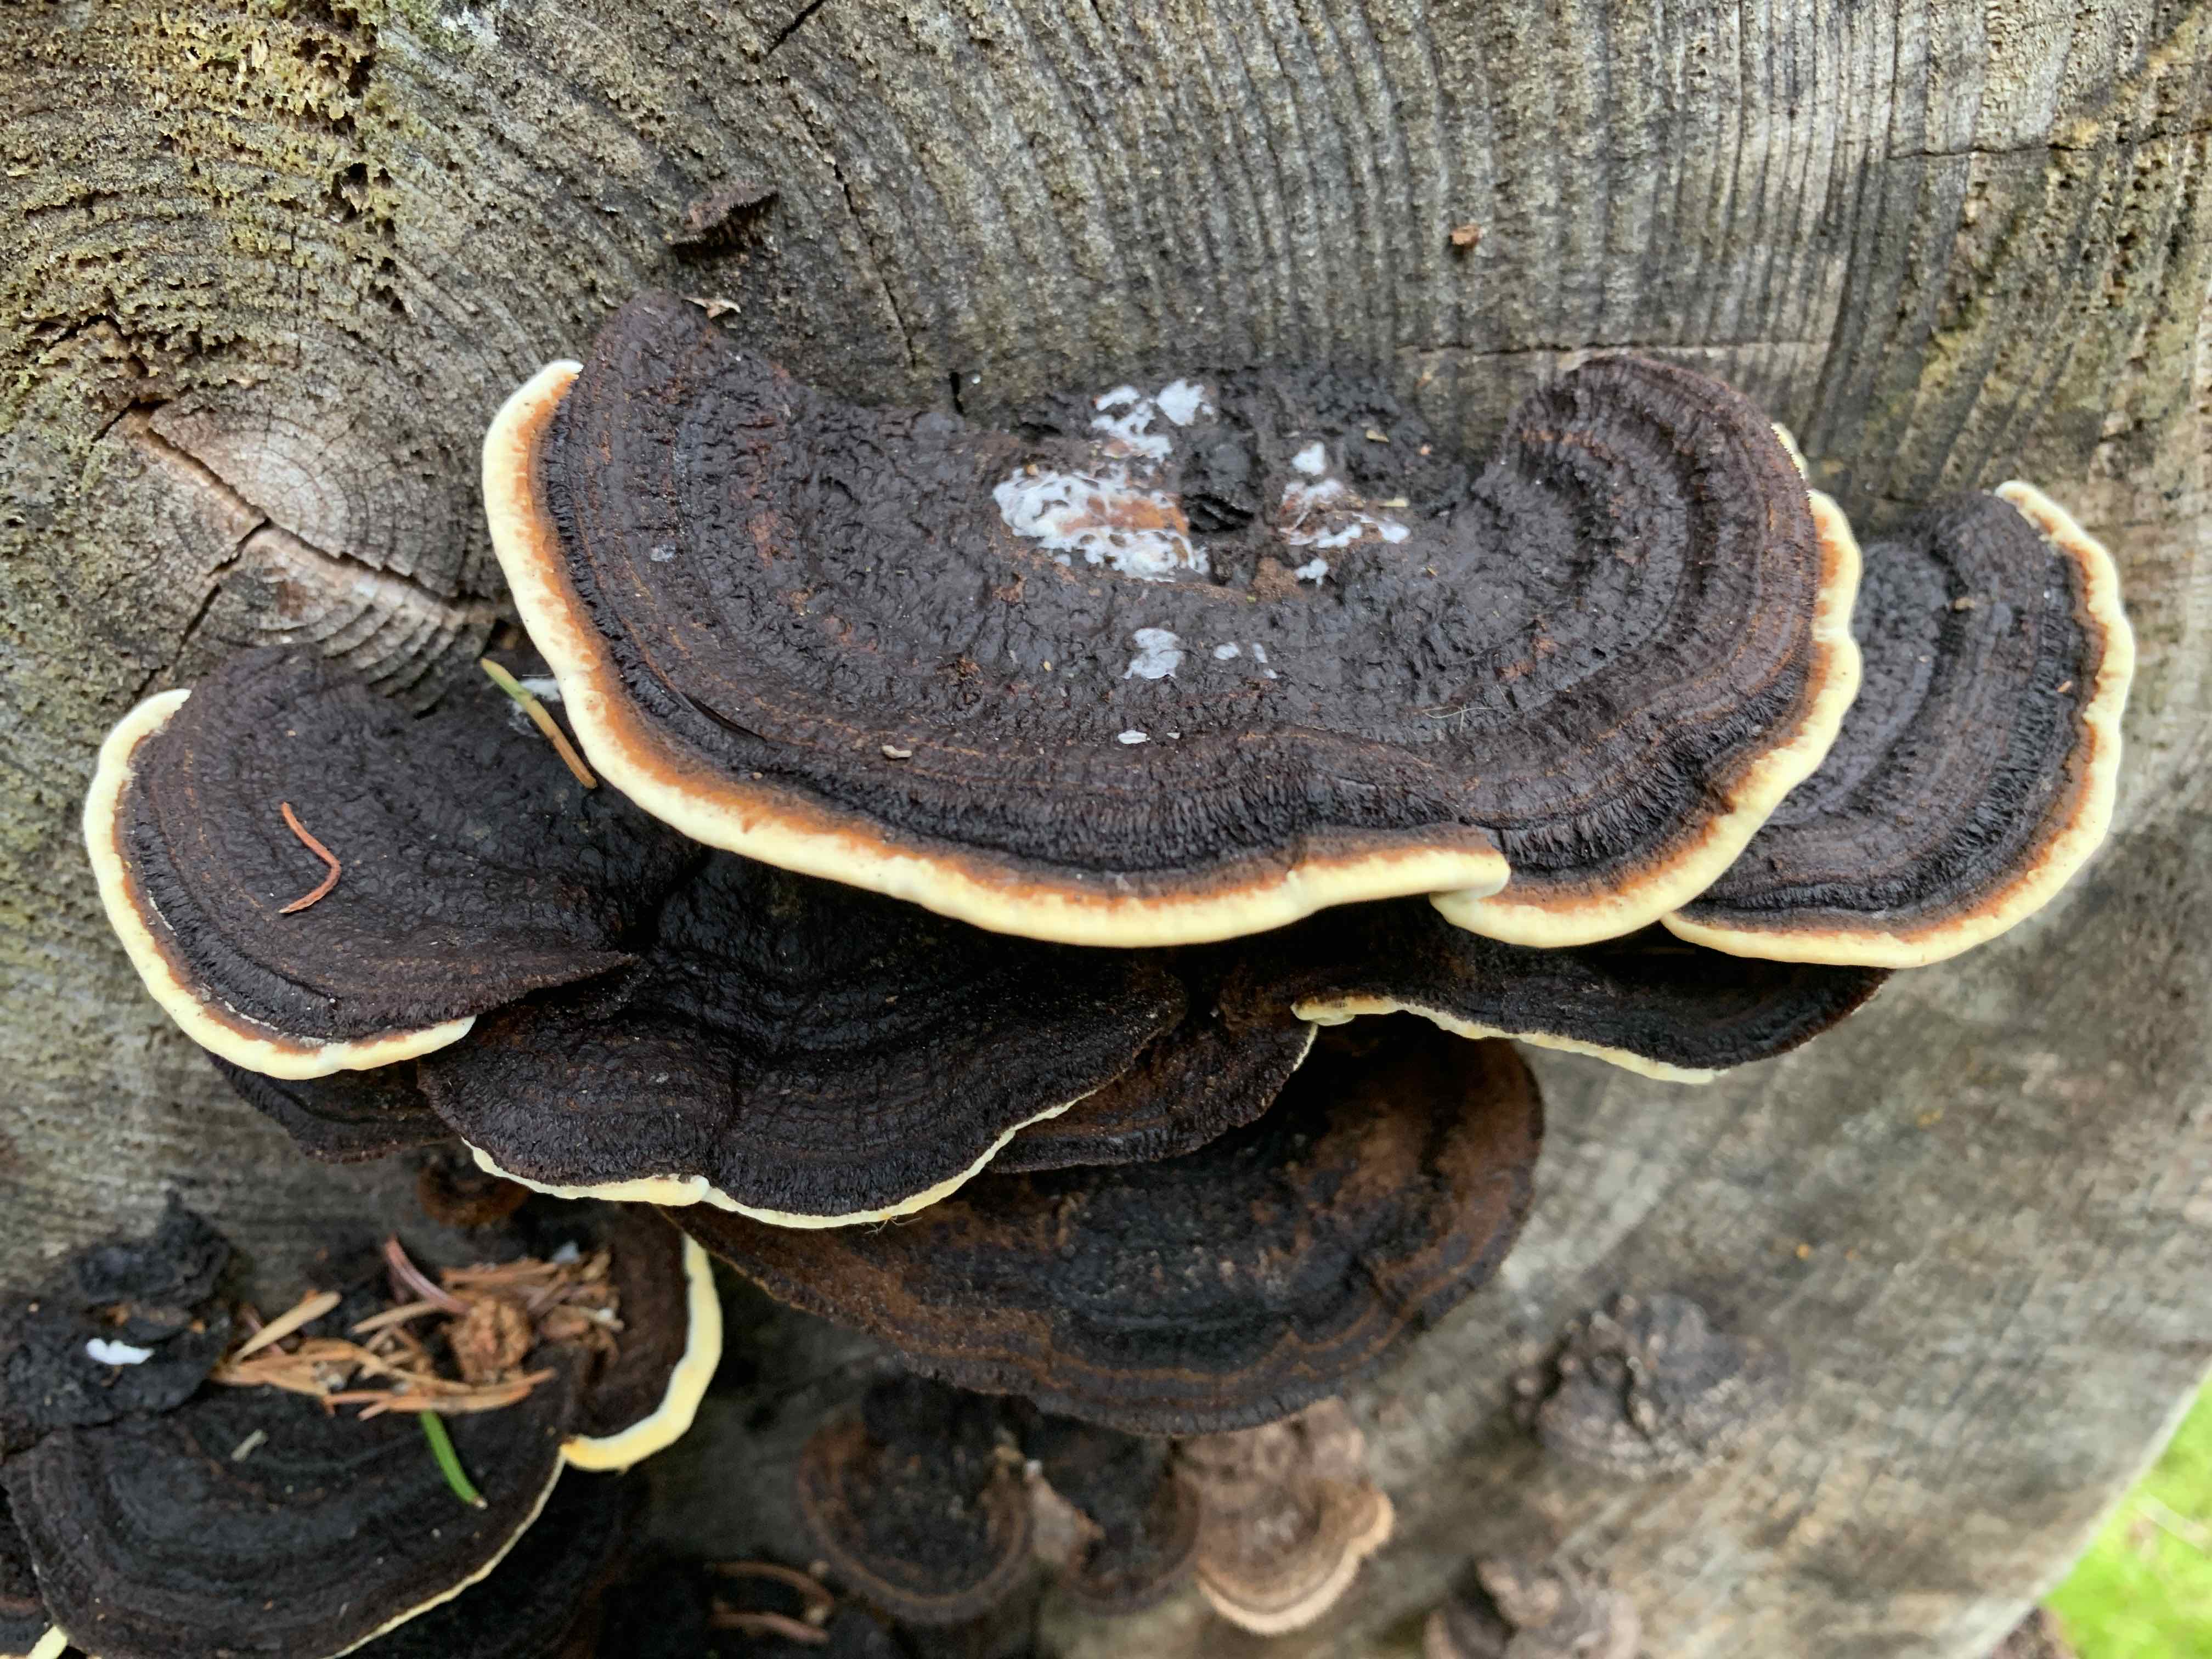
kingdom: Fungi
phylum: Basidiomycota
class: Agaricomycetes
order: Gloeophyllales
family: Gloeophyllaceae
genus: Gloeophyllum
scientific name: Gloeophyllum sepiarium
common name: fyrre-korkhat
